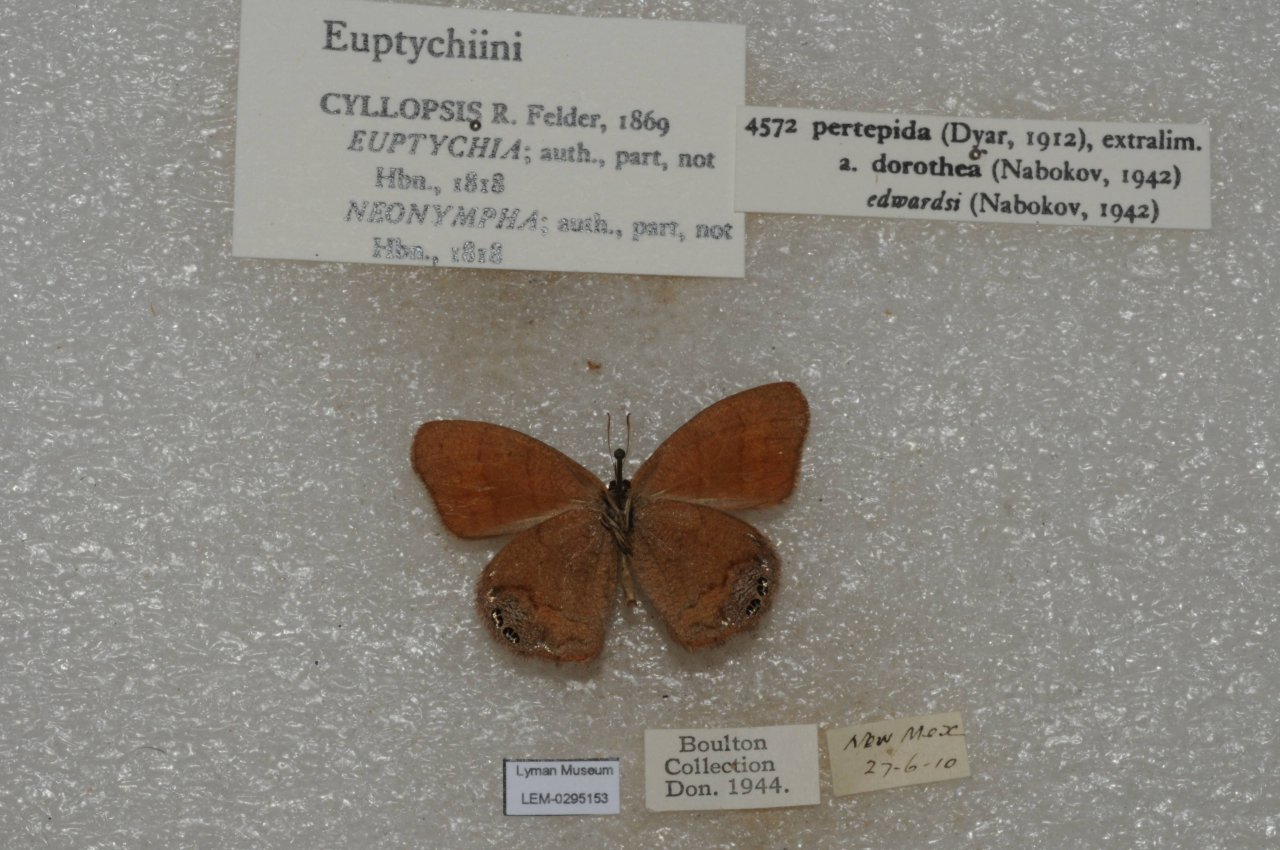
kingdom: Animalia
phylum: Arthropoda
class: Insecta
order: Lepidoptera
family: Nymphalidae
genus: Euptychia
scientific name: Euptychia Cyllopsis pertepida
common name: Canyonland Satyr
